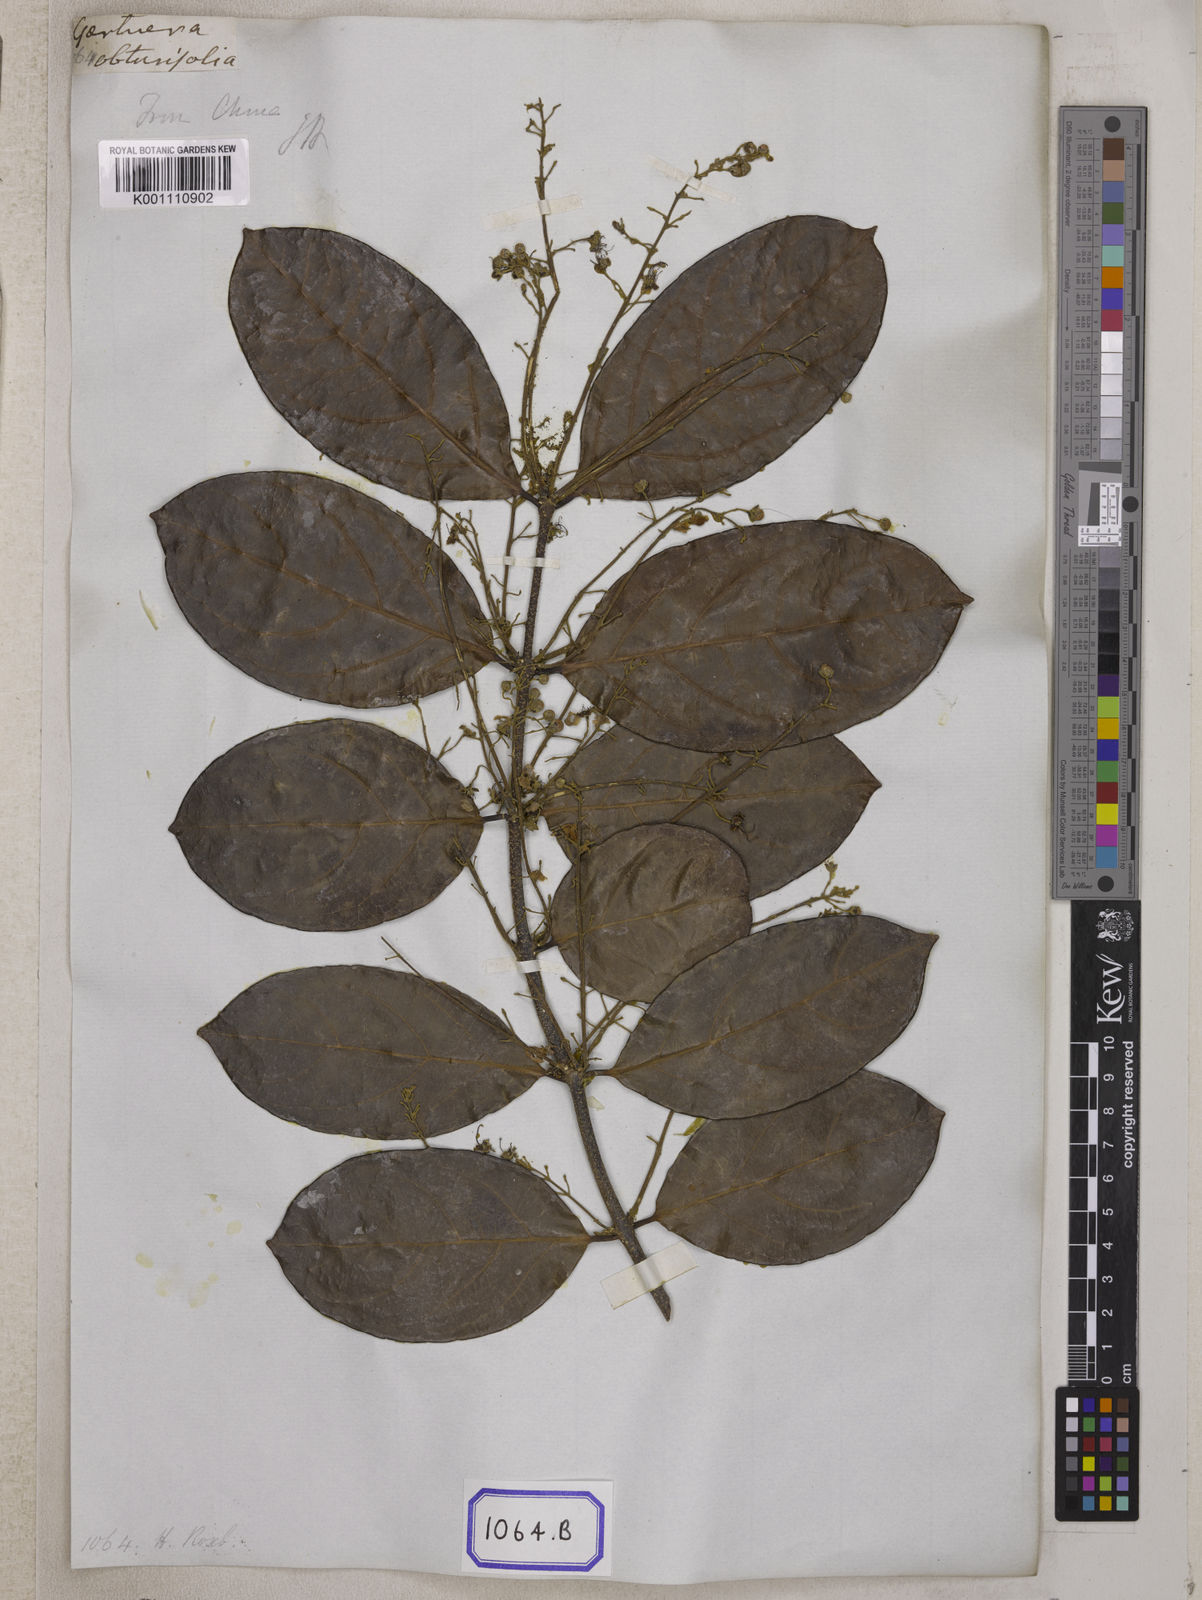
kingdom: Plantae
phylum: Tracheophyta
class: Magnoliopsida
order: Malpighiales
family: Malpighiaceae
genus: Hiptage
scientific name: Hiptage benghalensis
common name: Hiptage
